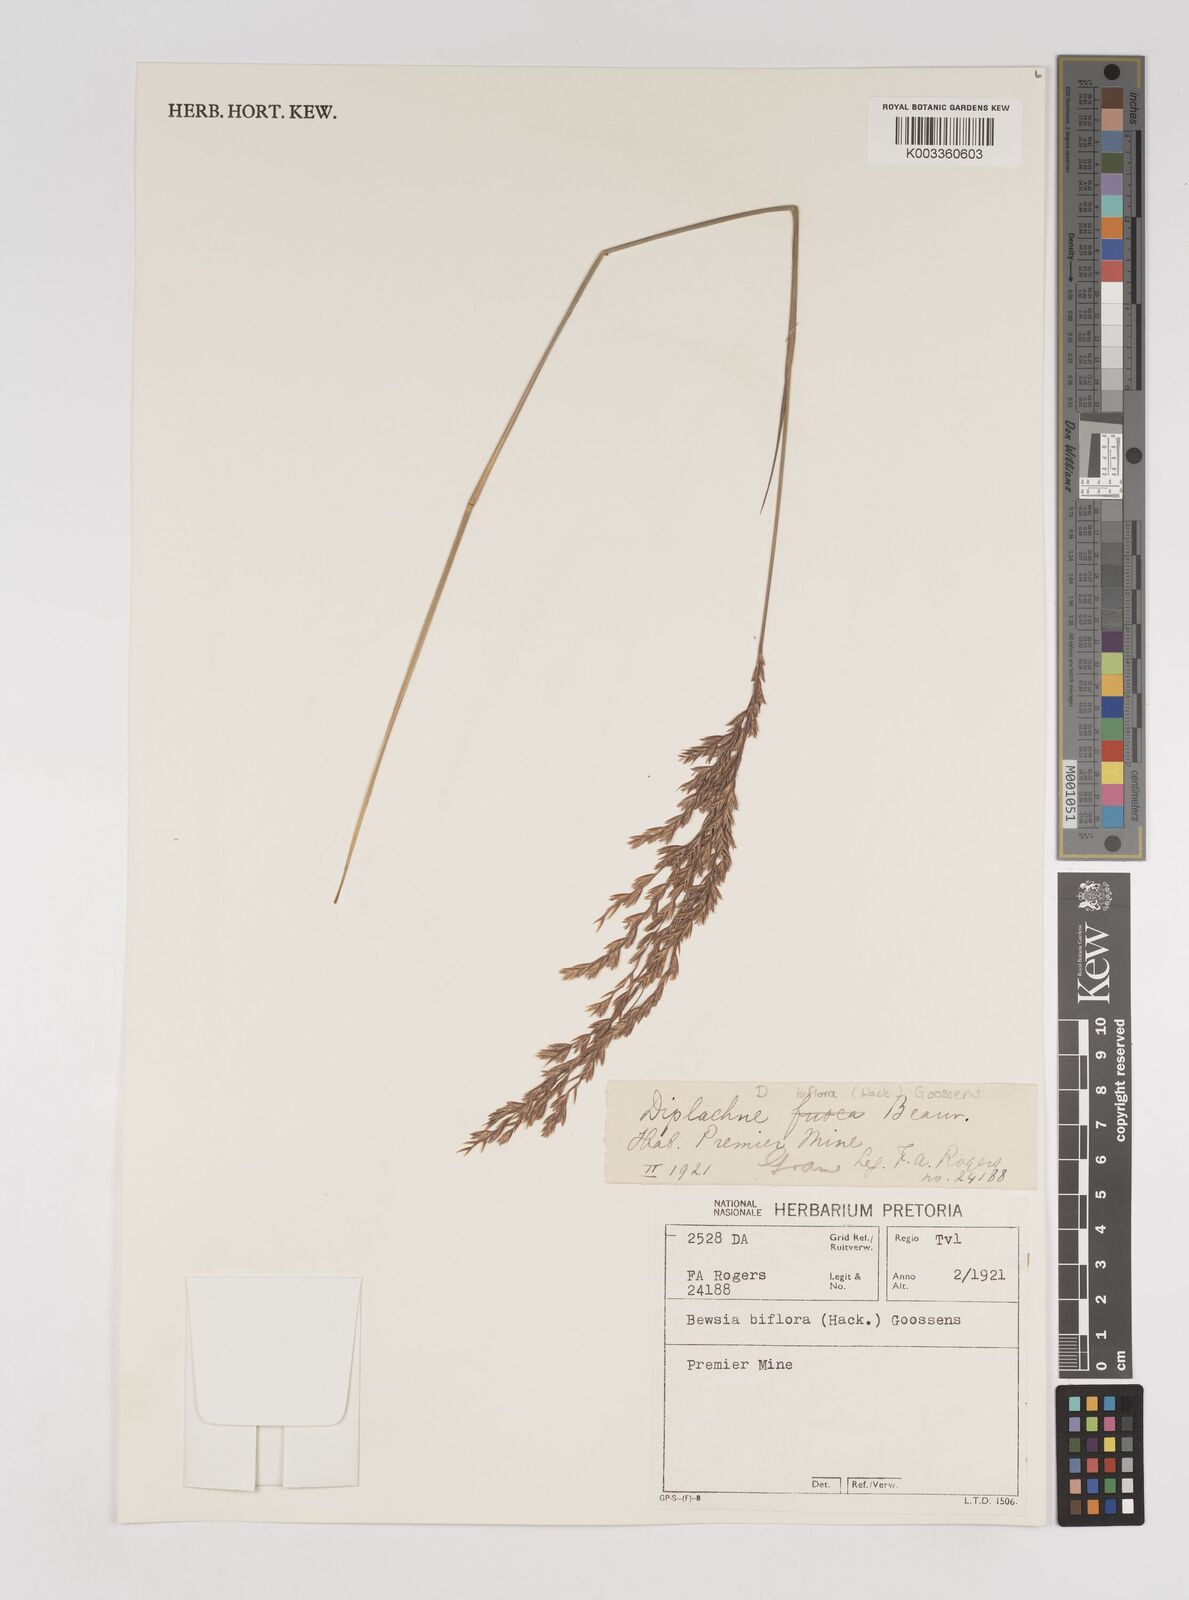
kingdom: Plantae
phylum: Tracheophyta
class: Liliopsida
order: Poales
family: Poaceae
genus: Bewsia
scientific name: Bewsia biflora
